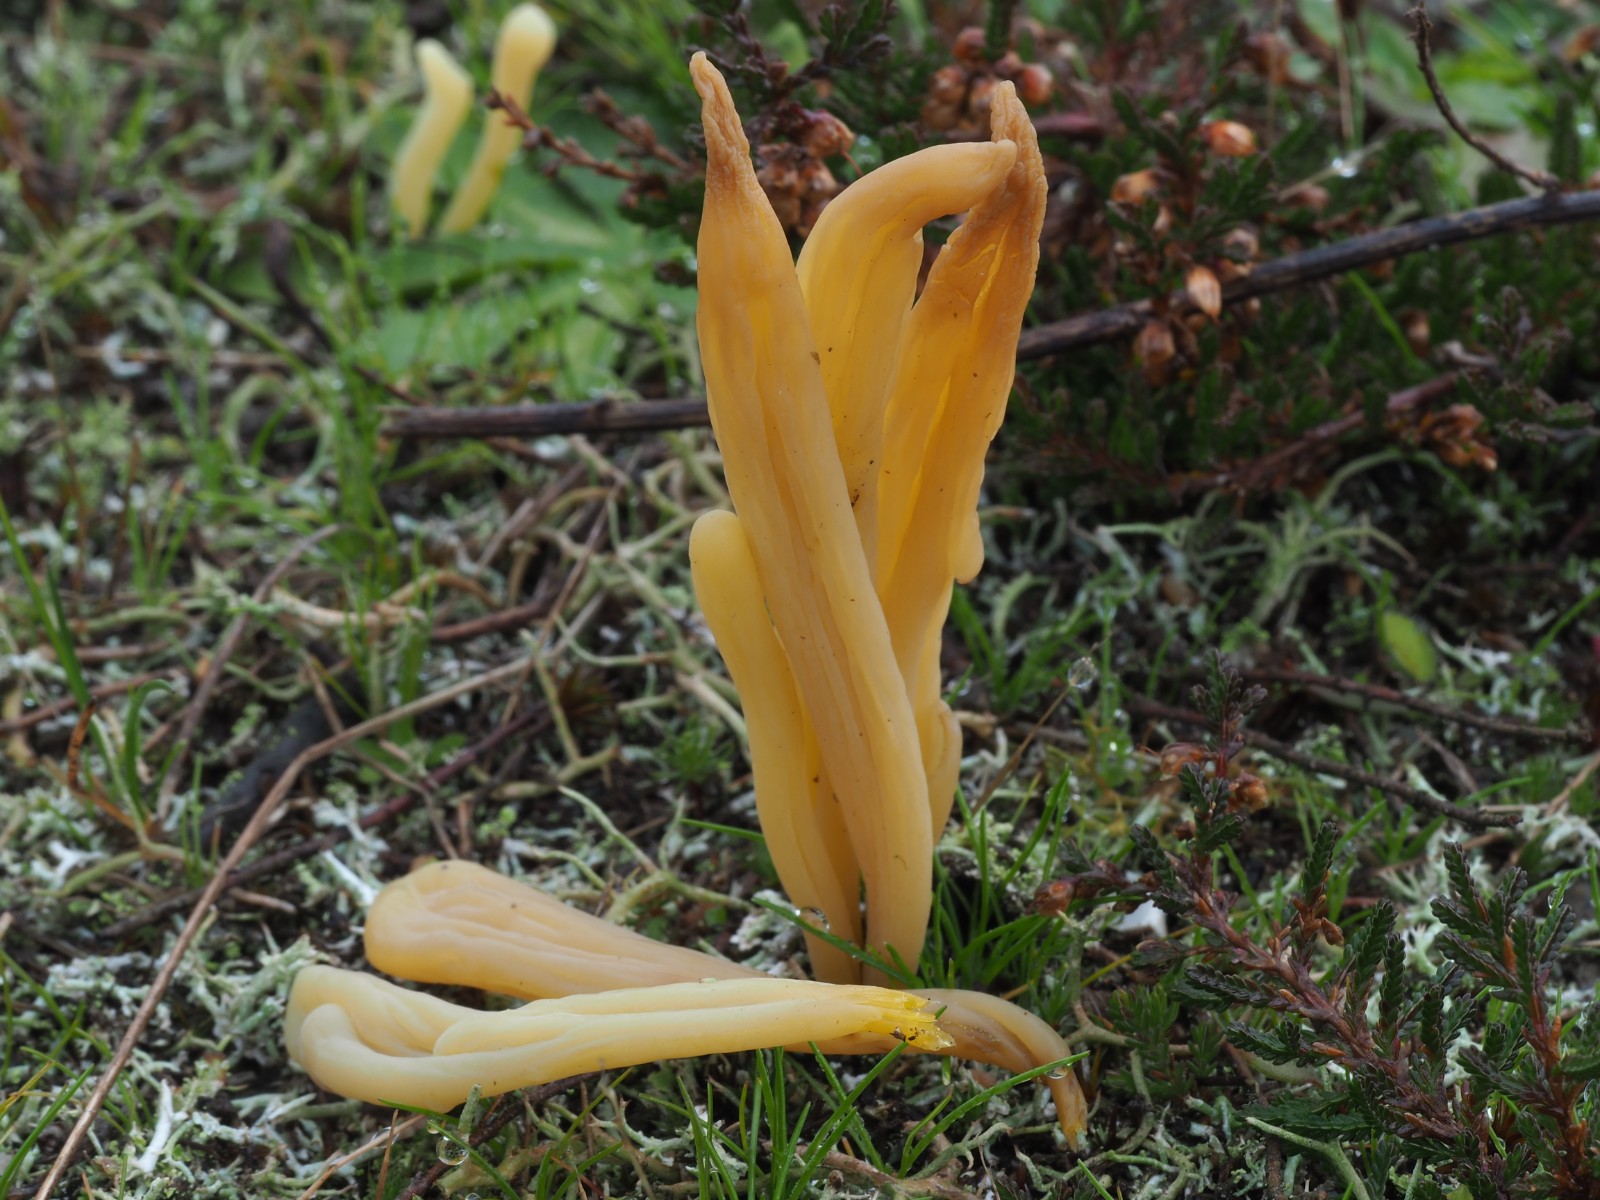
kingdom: Fungi
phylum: Basidiomycota
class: Agaricomycetes
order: Agaricales
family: Clavariaceae
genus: Clavaria
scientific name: Clavaria argillacea
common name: lerfarvet køllesvamp
